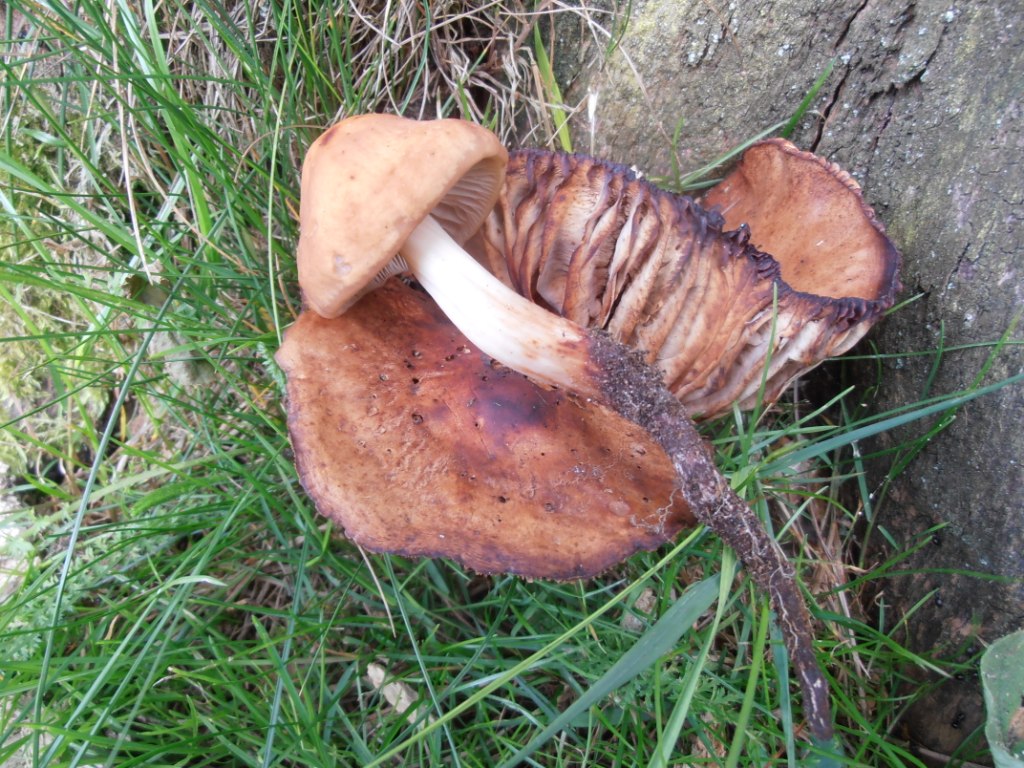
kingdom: Fungi
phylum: Basidiomycota
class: Agaricomycetes
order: Agaricales
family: Omphalotaceae
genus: Gymnopus
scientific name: Gymnopus fusipes
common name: tenstokket fladhat
